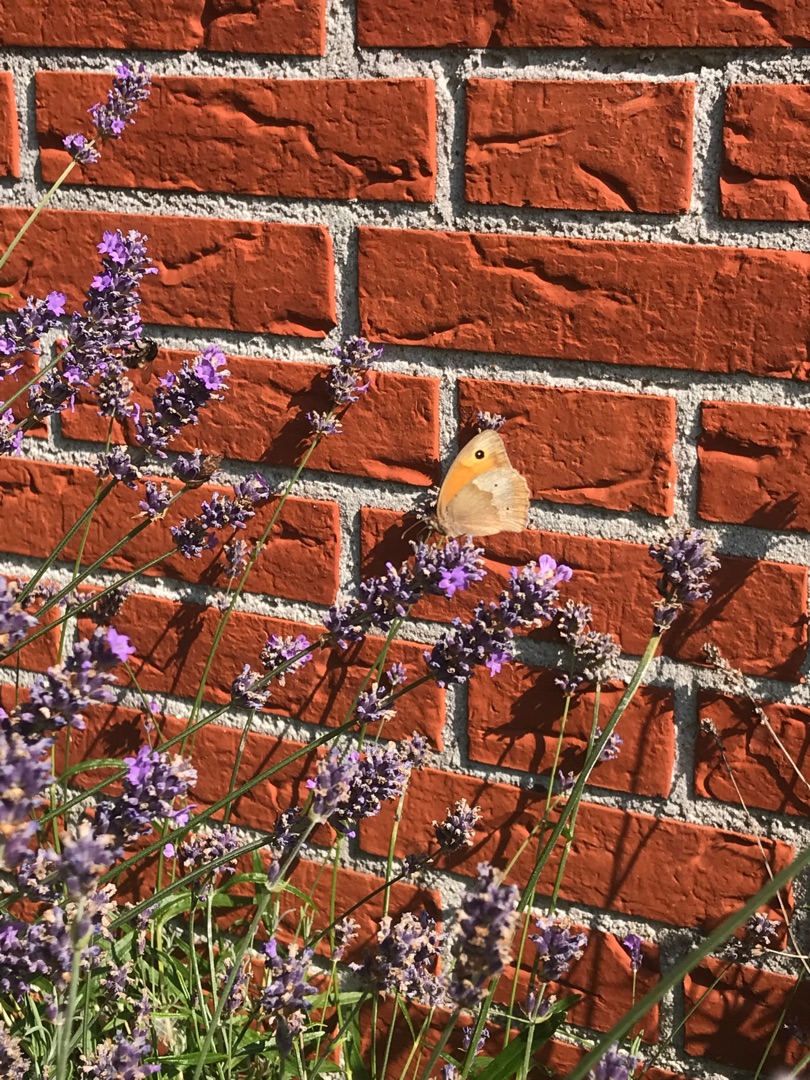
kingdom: Animalia
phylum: Arthropoda
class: Insecta
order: Lepidoptera
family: Nymphalidae
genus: Maniola
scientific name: Maniola jurtina
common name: Græsrandøje
